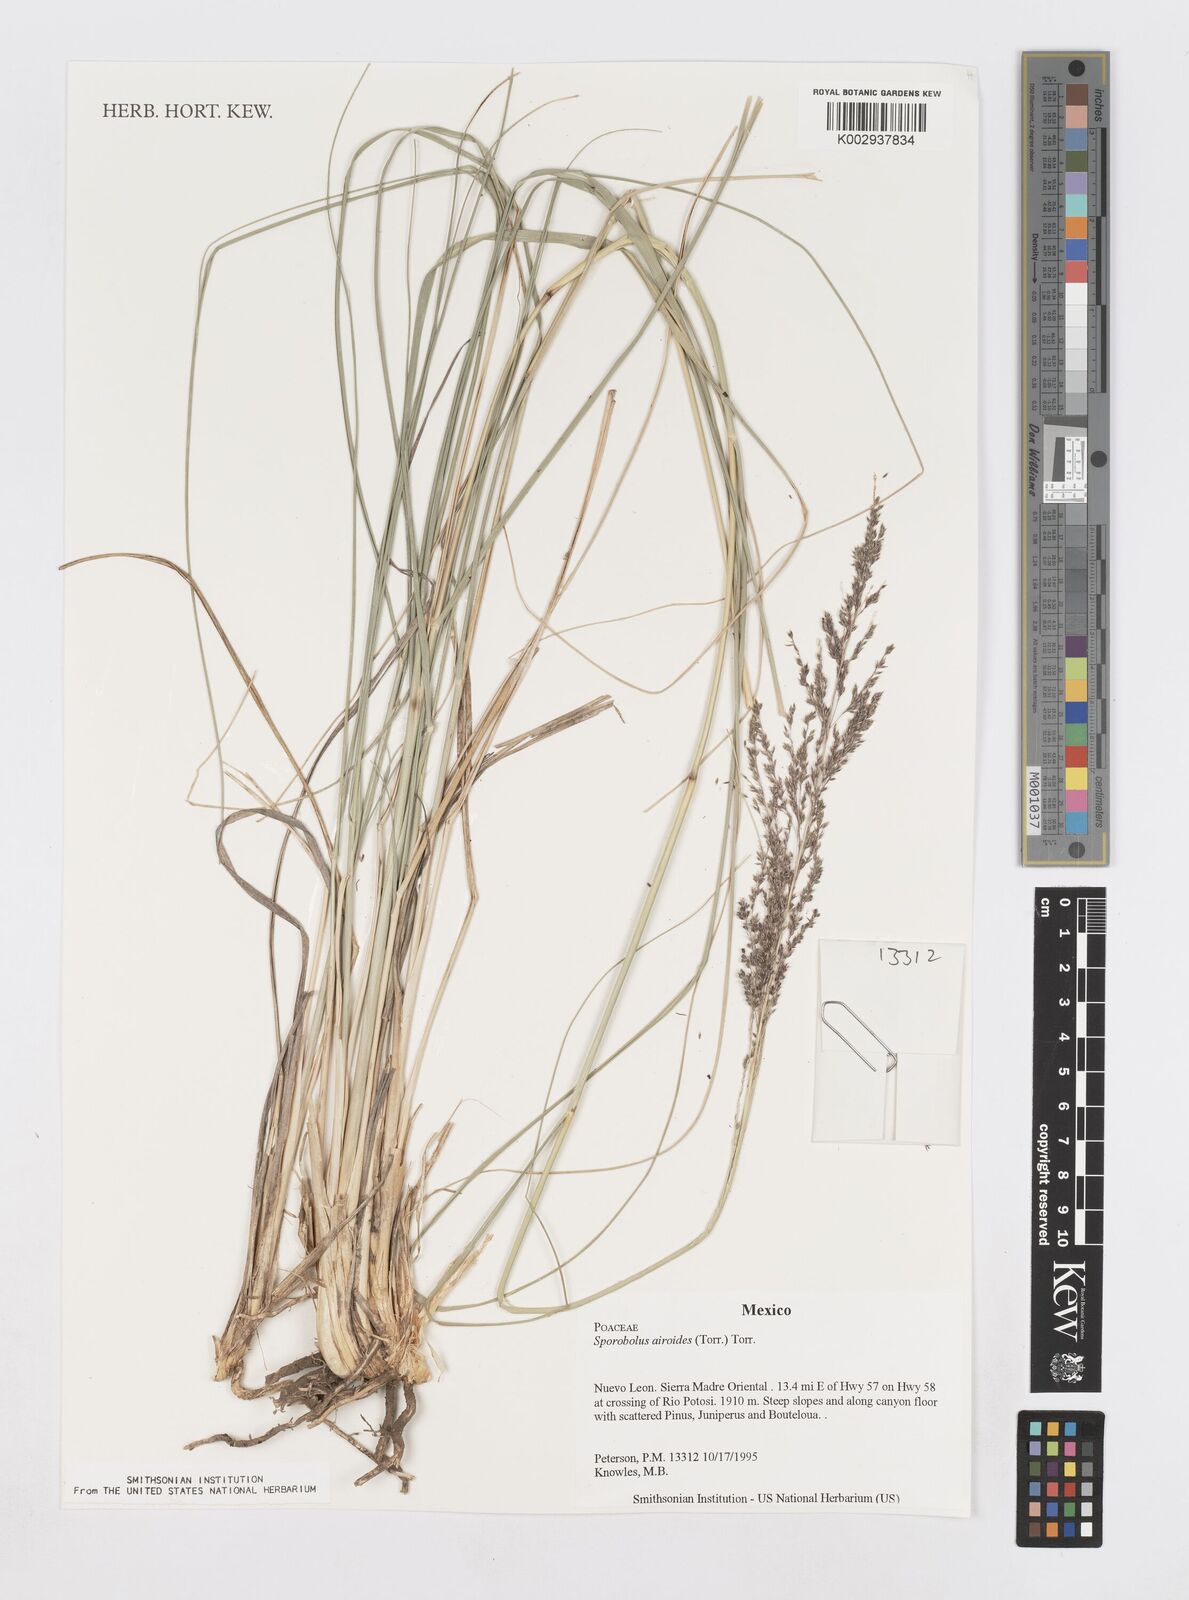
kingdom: Plantae
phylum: Tracheophyta
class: Liliopsida
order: Poales
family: Poaceae
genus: Sporobolus
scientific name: Sporobolus airoides
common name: Alkali sacaton
